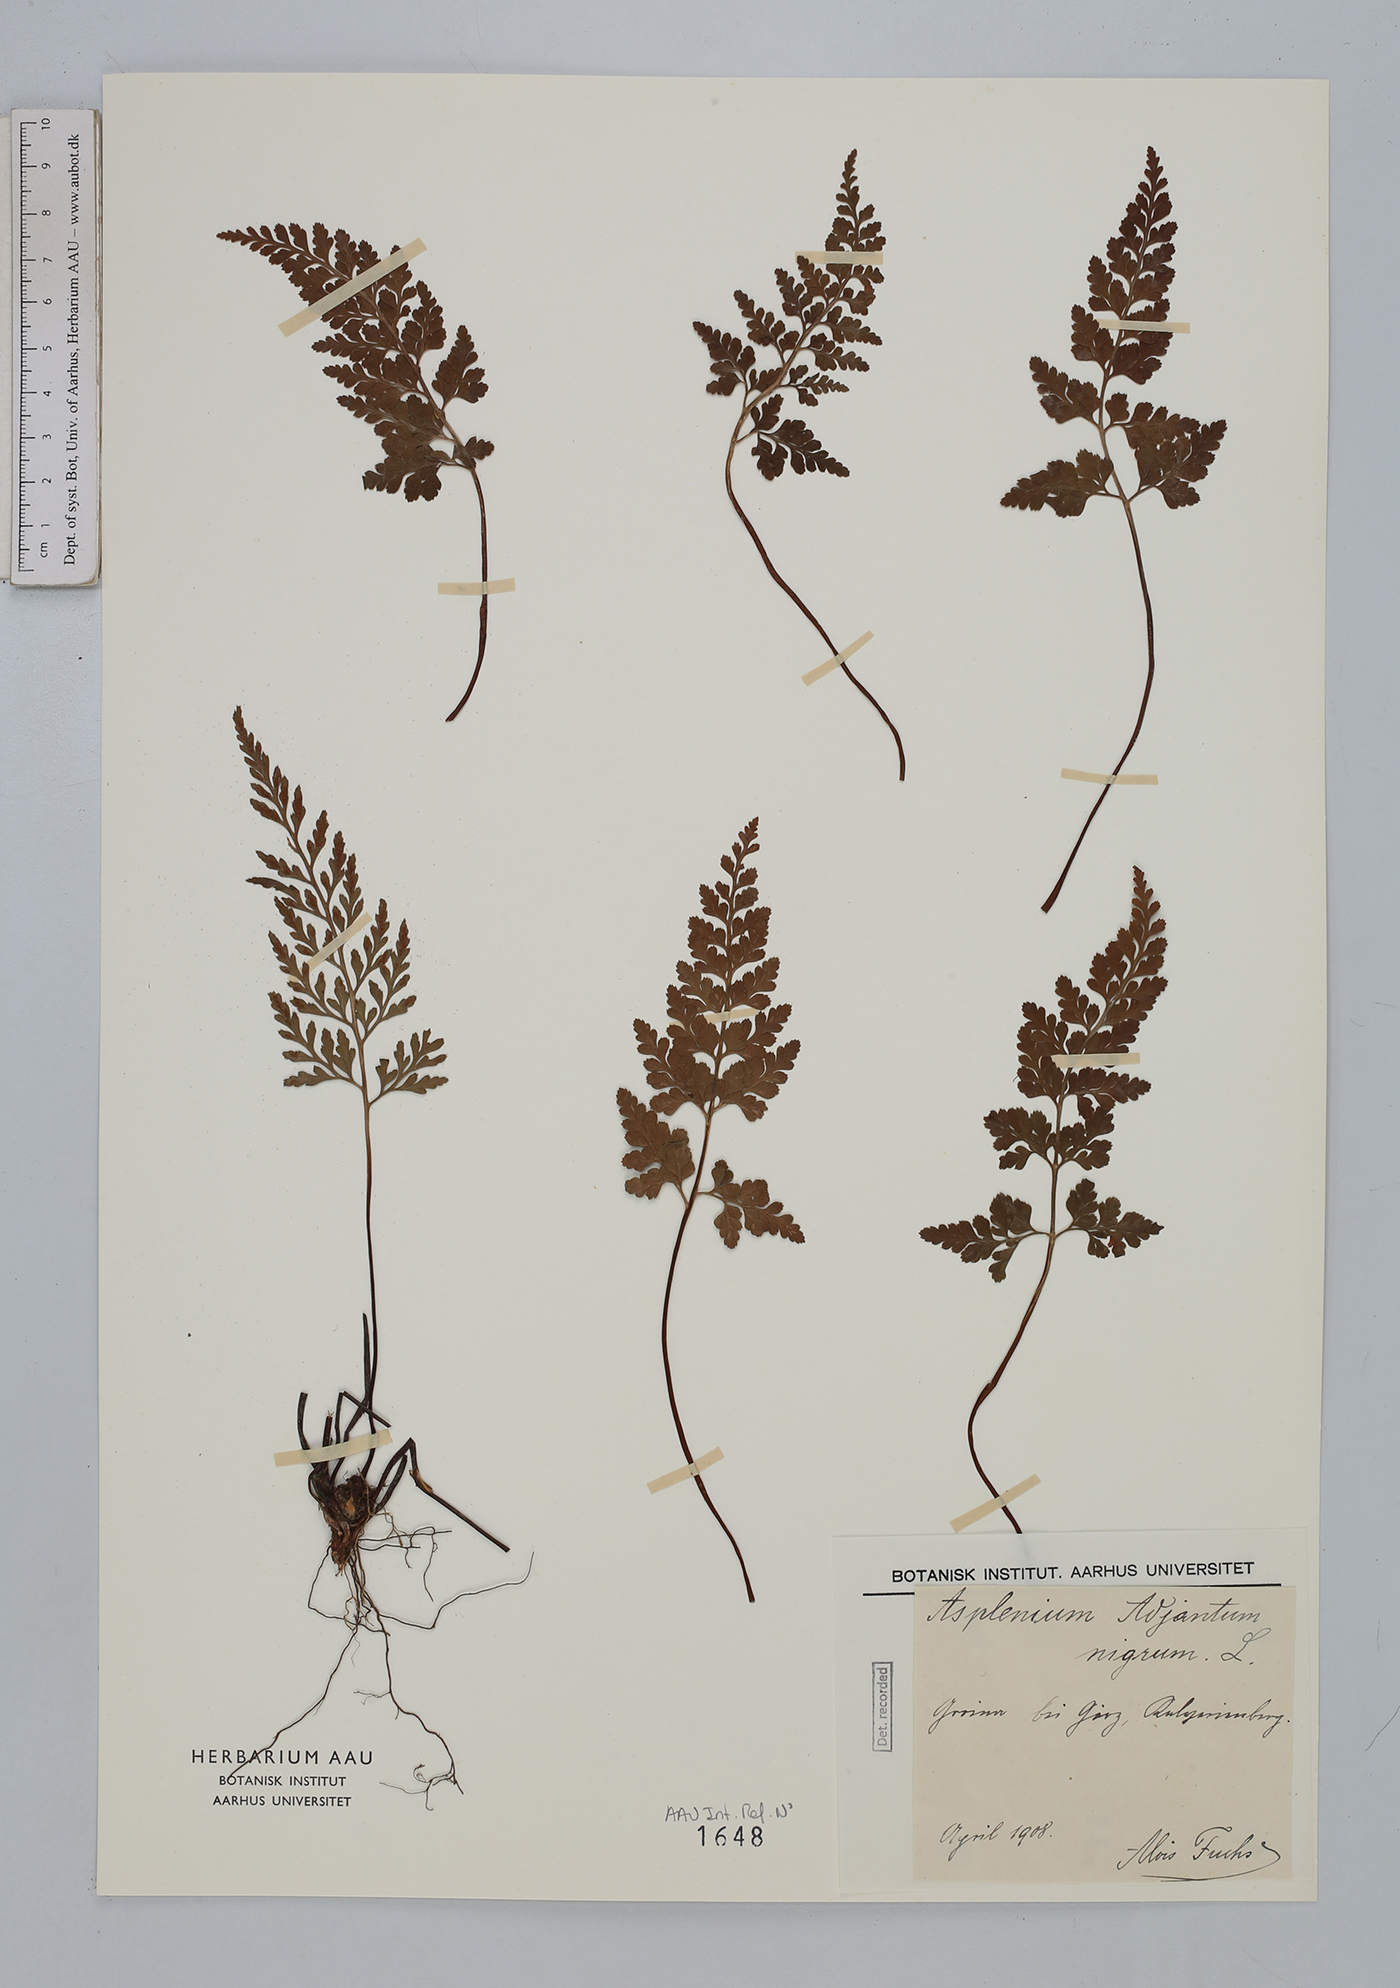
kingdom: Plantae
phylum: Tracheophyta
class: Polypodiopsida
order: Polypodiales
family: Aspleniaceae
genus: Asplenium
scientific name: Asplenium adiantum-nigrum
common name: Black spleenwort
